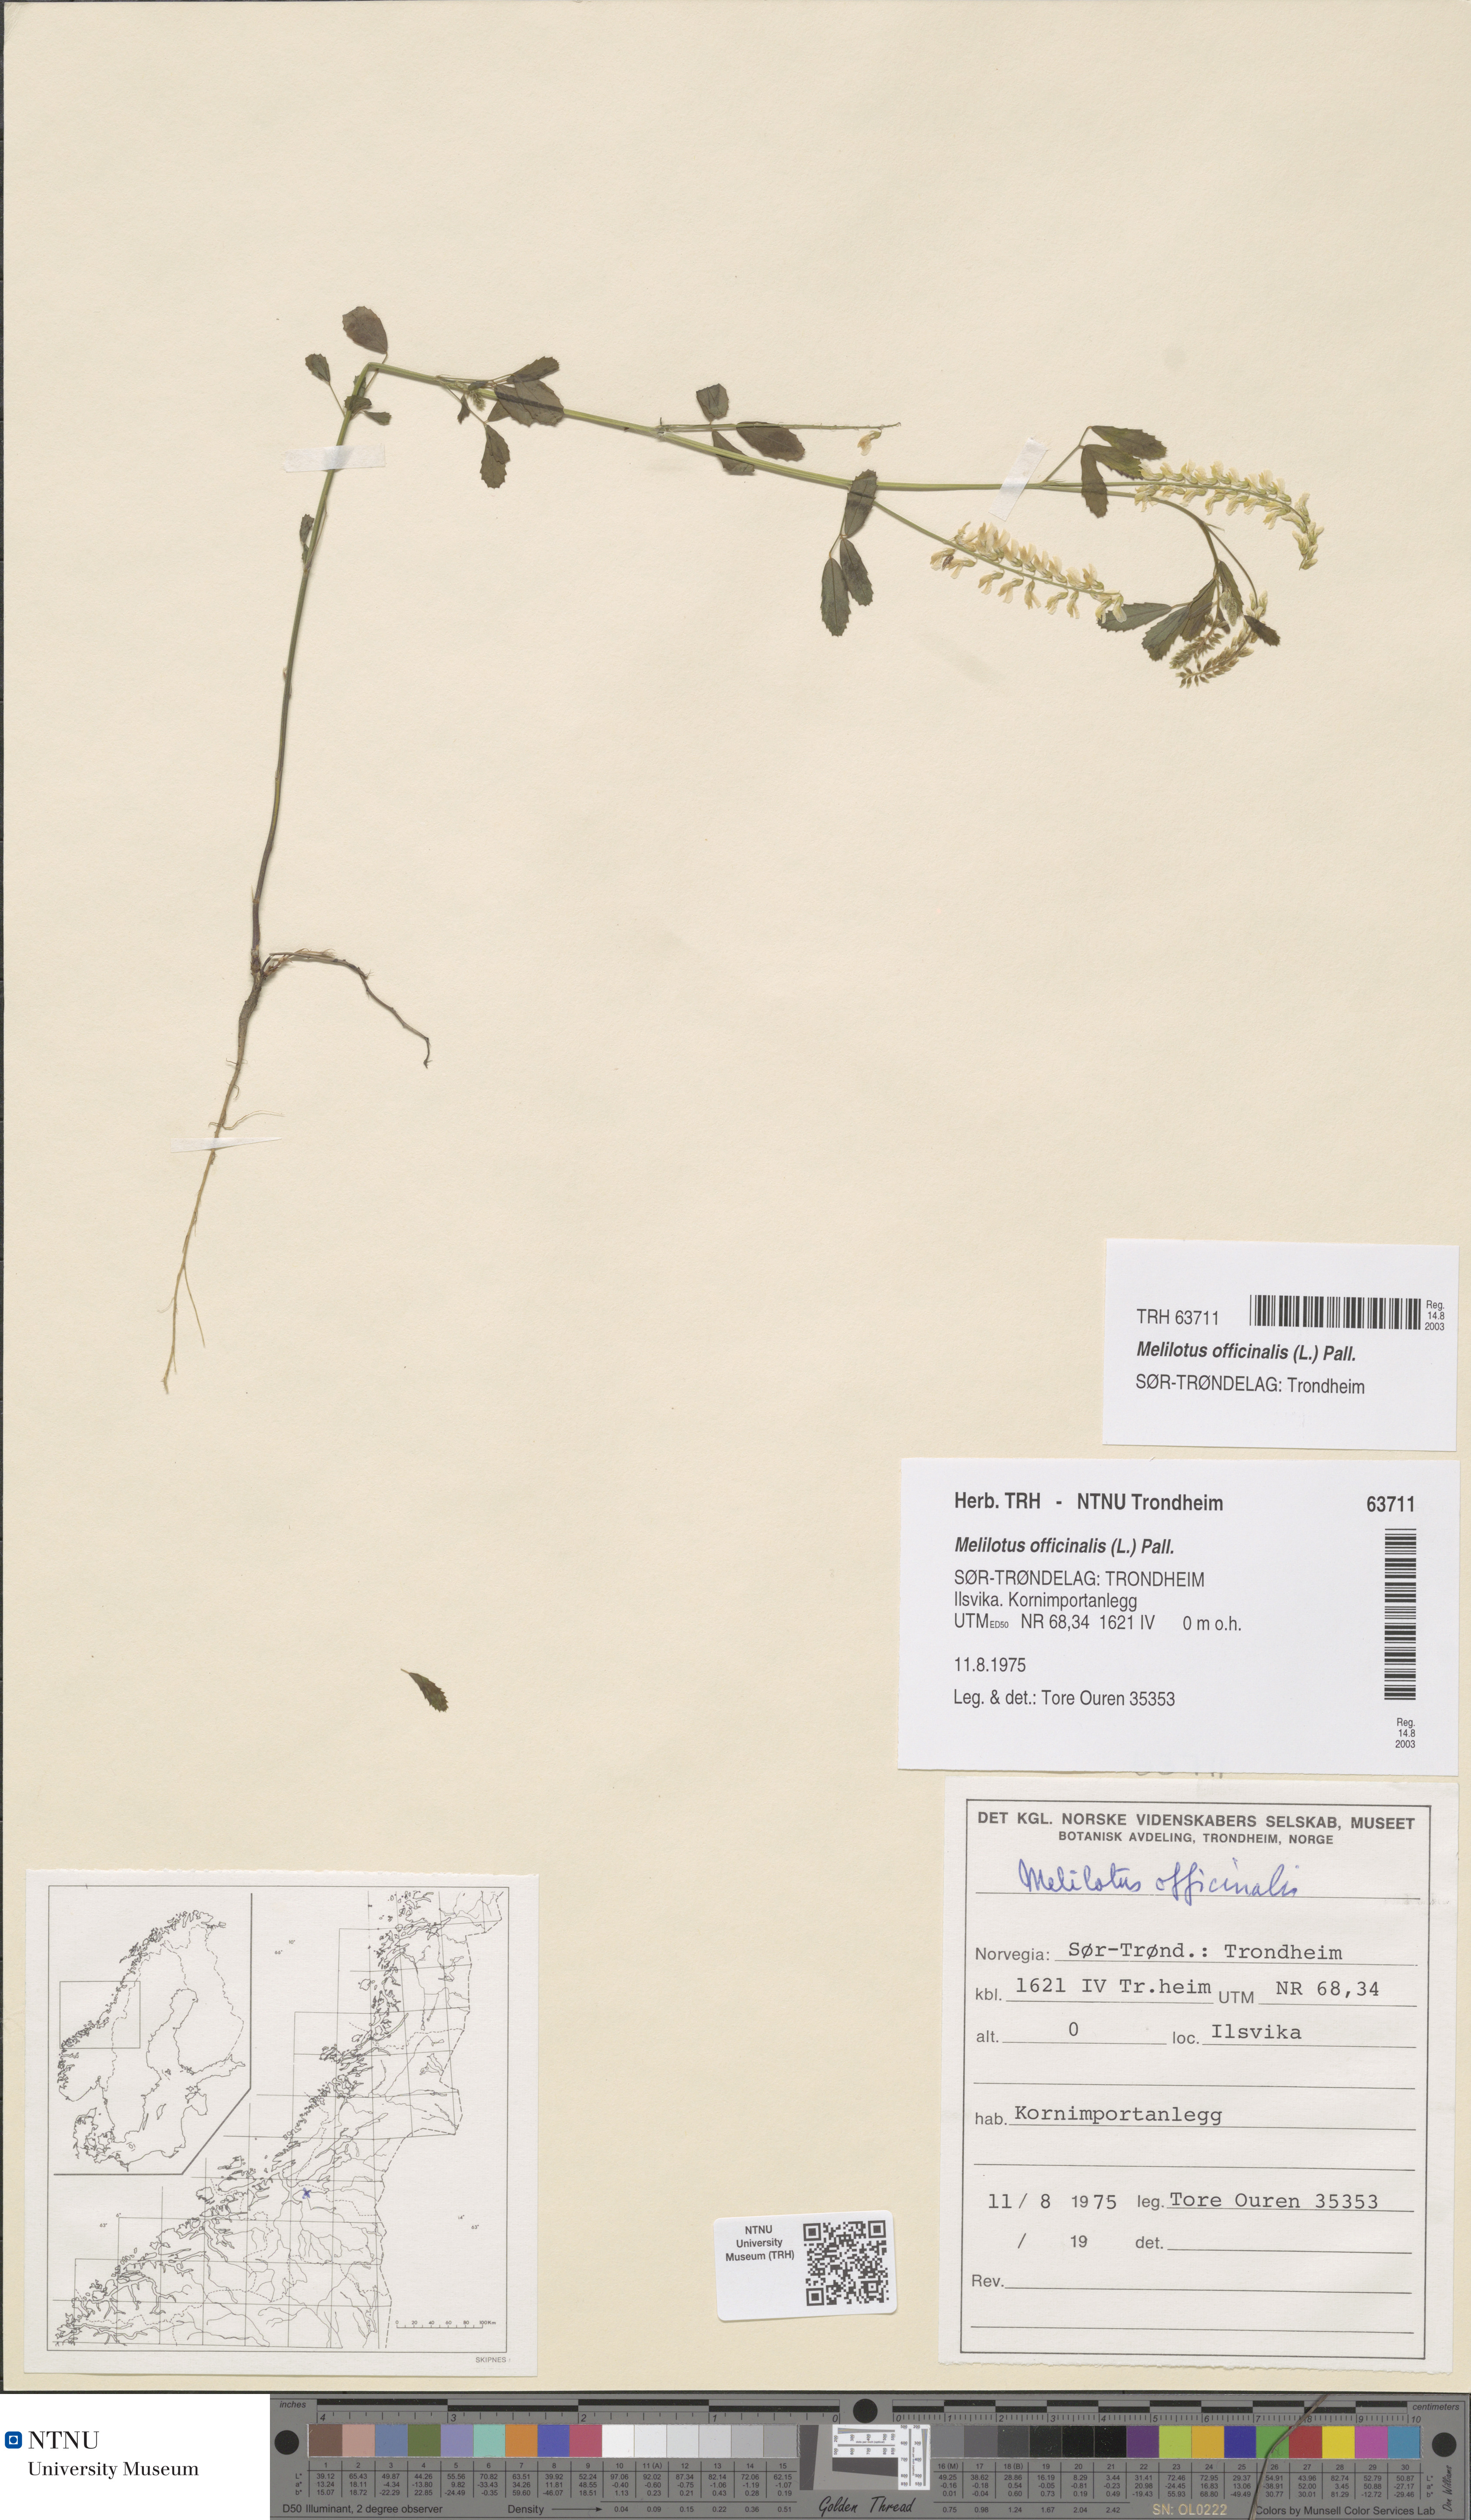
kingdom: Plantae
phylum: Tracheophyta
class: Magnoliopsida
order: Fabales
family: Fabaceae
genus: Melilotus
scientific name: Melilotus officinalis
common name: Sweetclover
